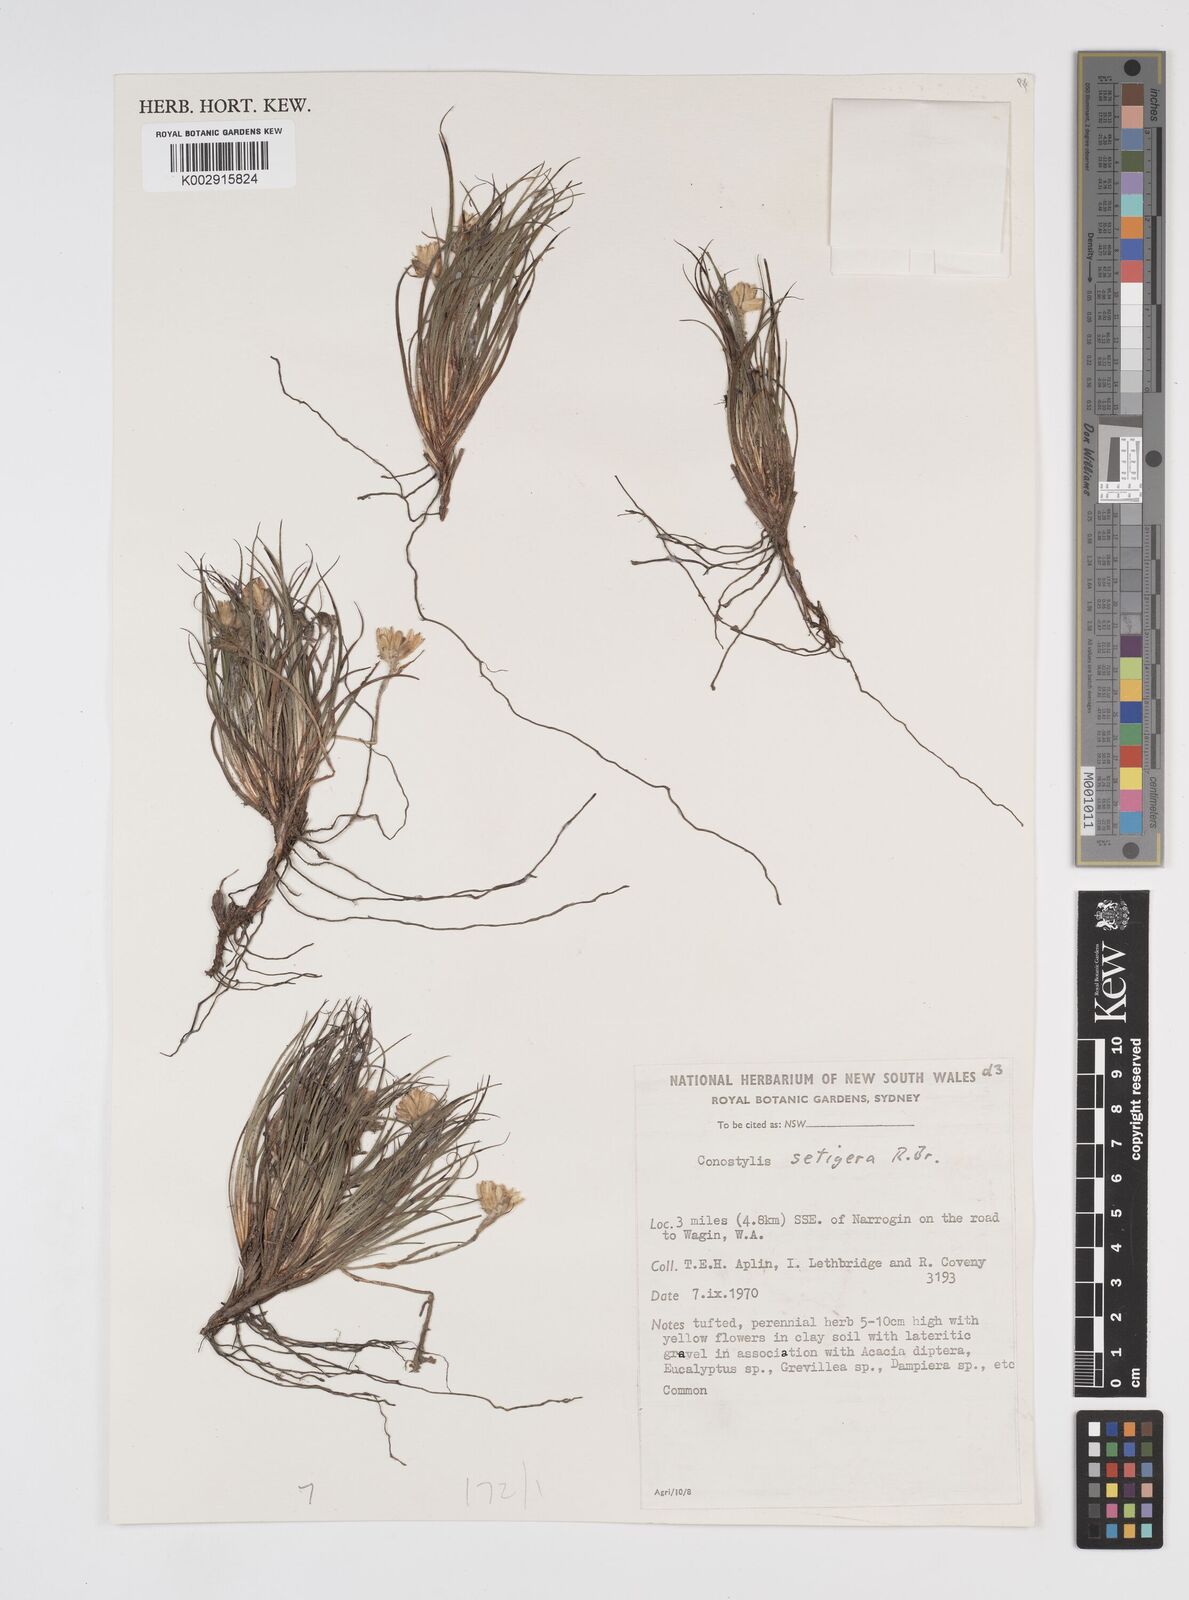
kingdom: Plantae
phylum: Tracheophyta
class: Liliopsida
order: Commelinales
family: Haemodoraceae
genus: Conostylis
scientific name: Conostylis setigera
